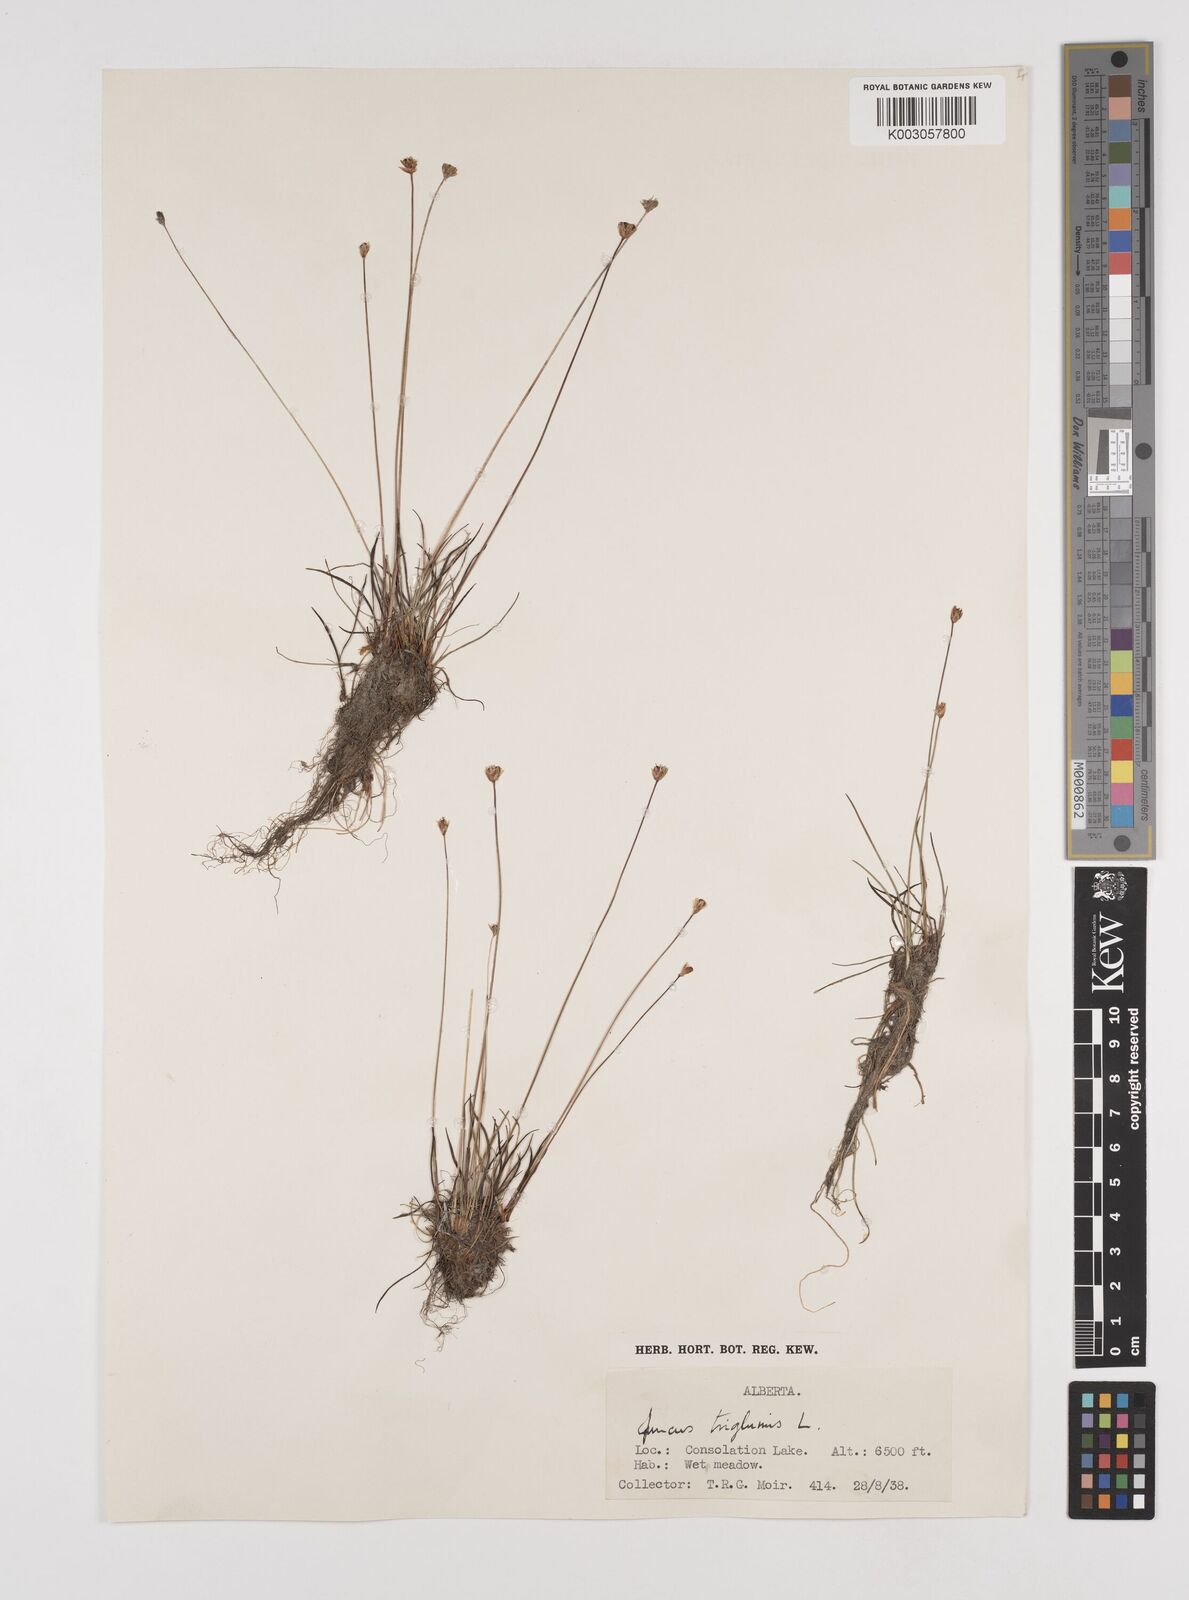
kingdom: Plantae
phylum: Tracheophyta
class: Liliopsida
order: Poales
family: Juncaceae
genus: Juncus
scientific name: Juncus triglumis
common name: Three-flowered rush
